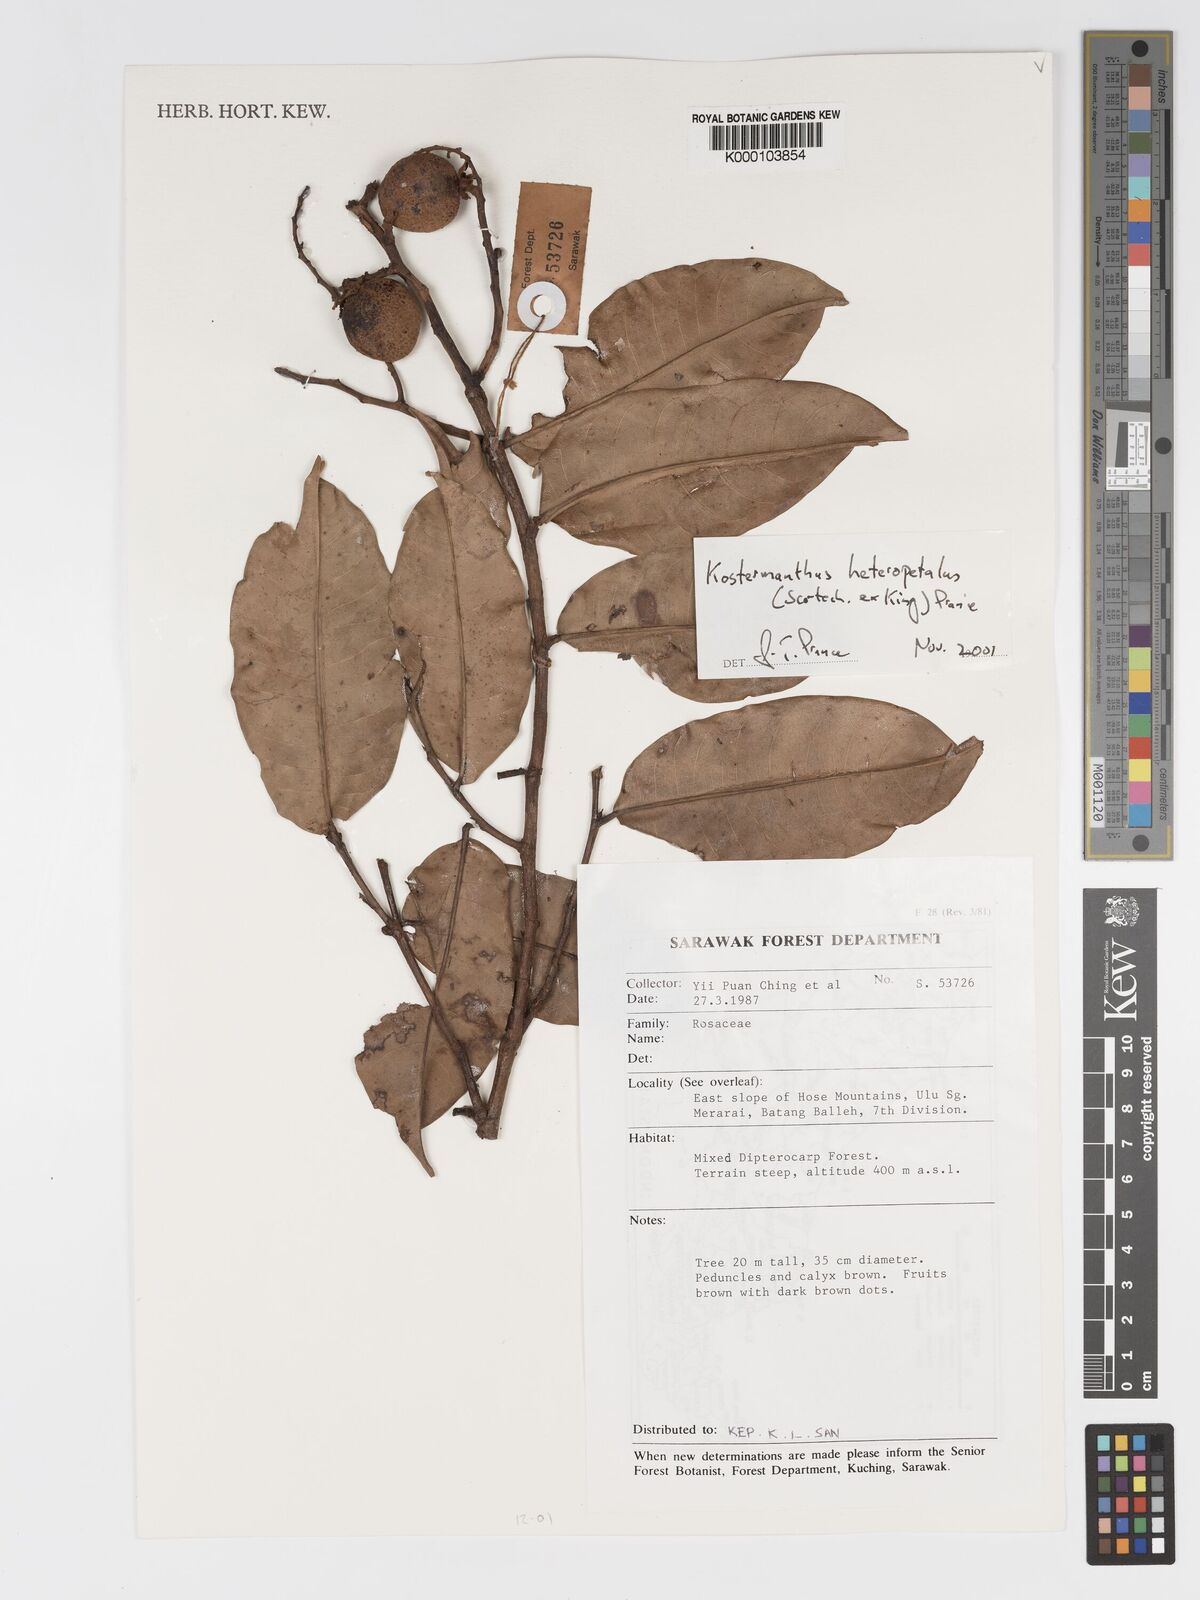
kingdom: Plantae
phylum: Tracheophyta
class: Magnoliopsida
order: Malpighiales
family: Chrysobalanaceae
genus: Kostermanthus
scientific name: Kostermanthus heteropetalus
